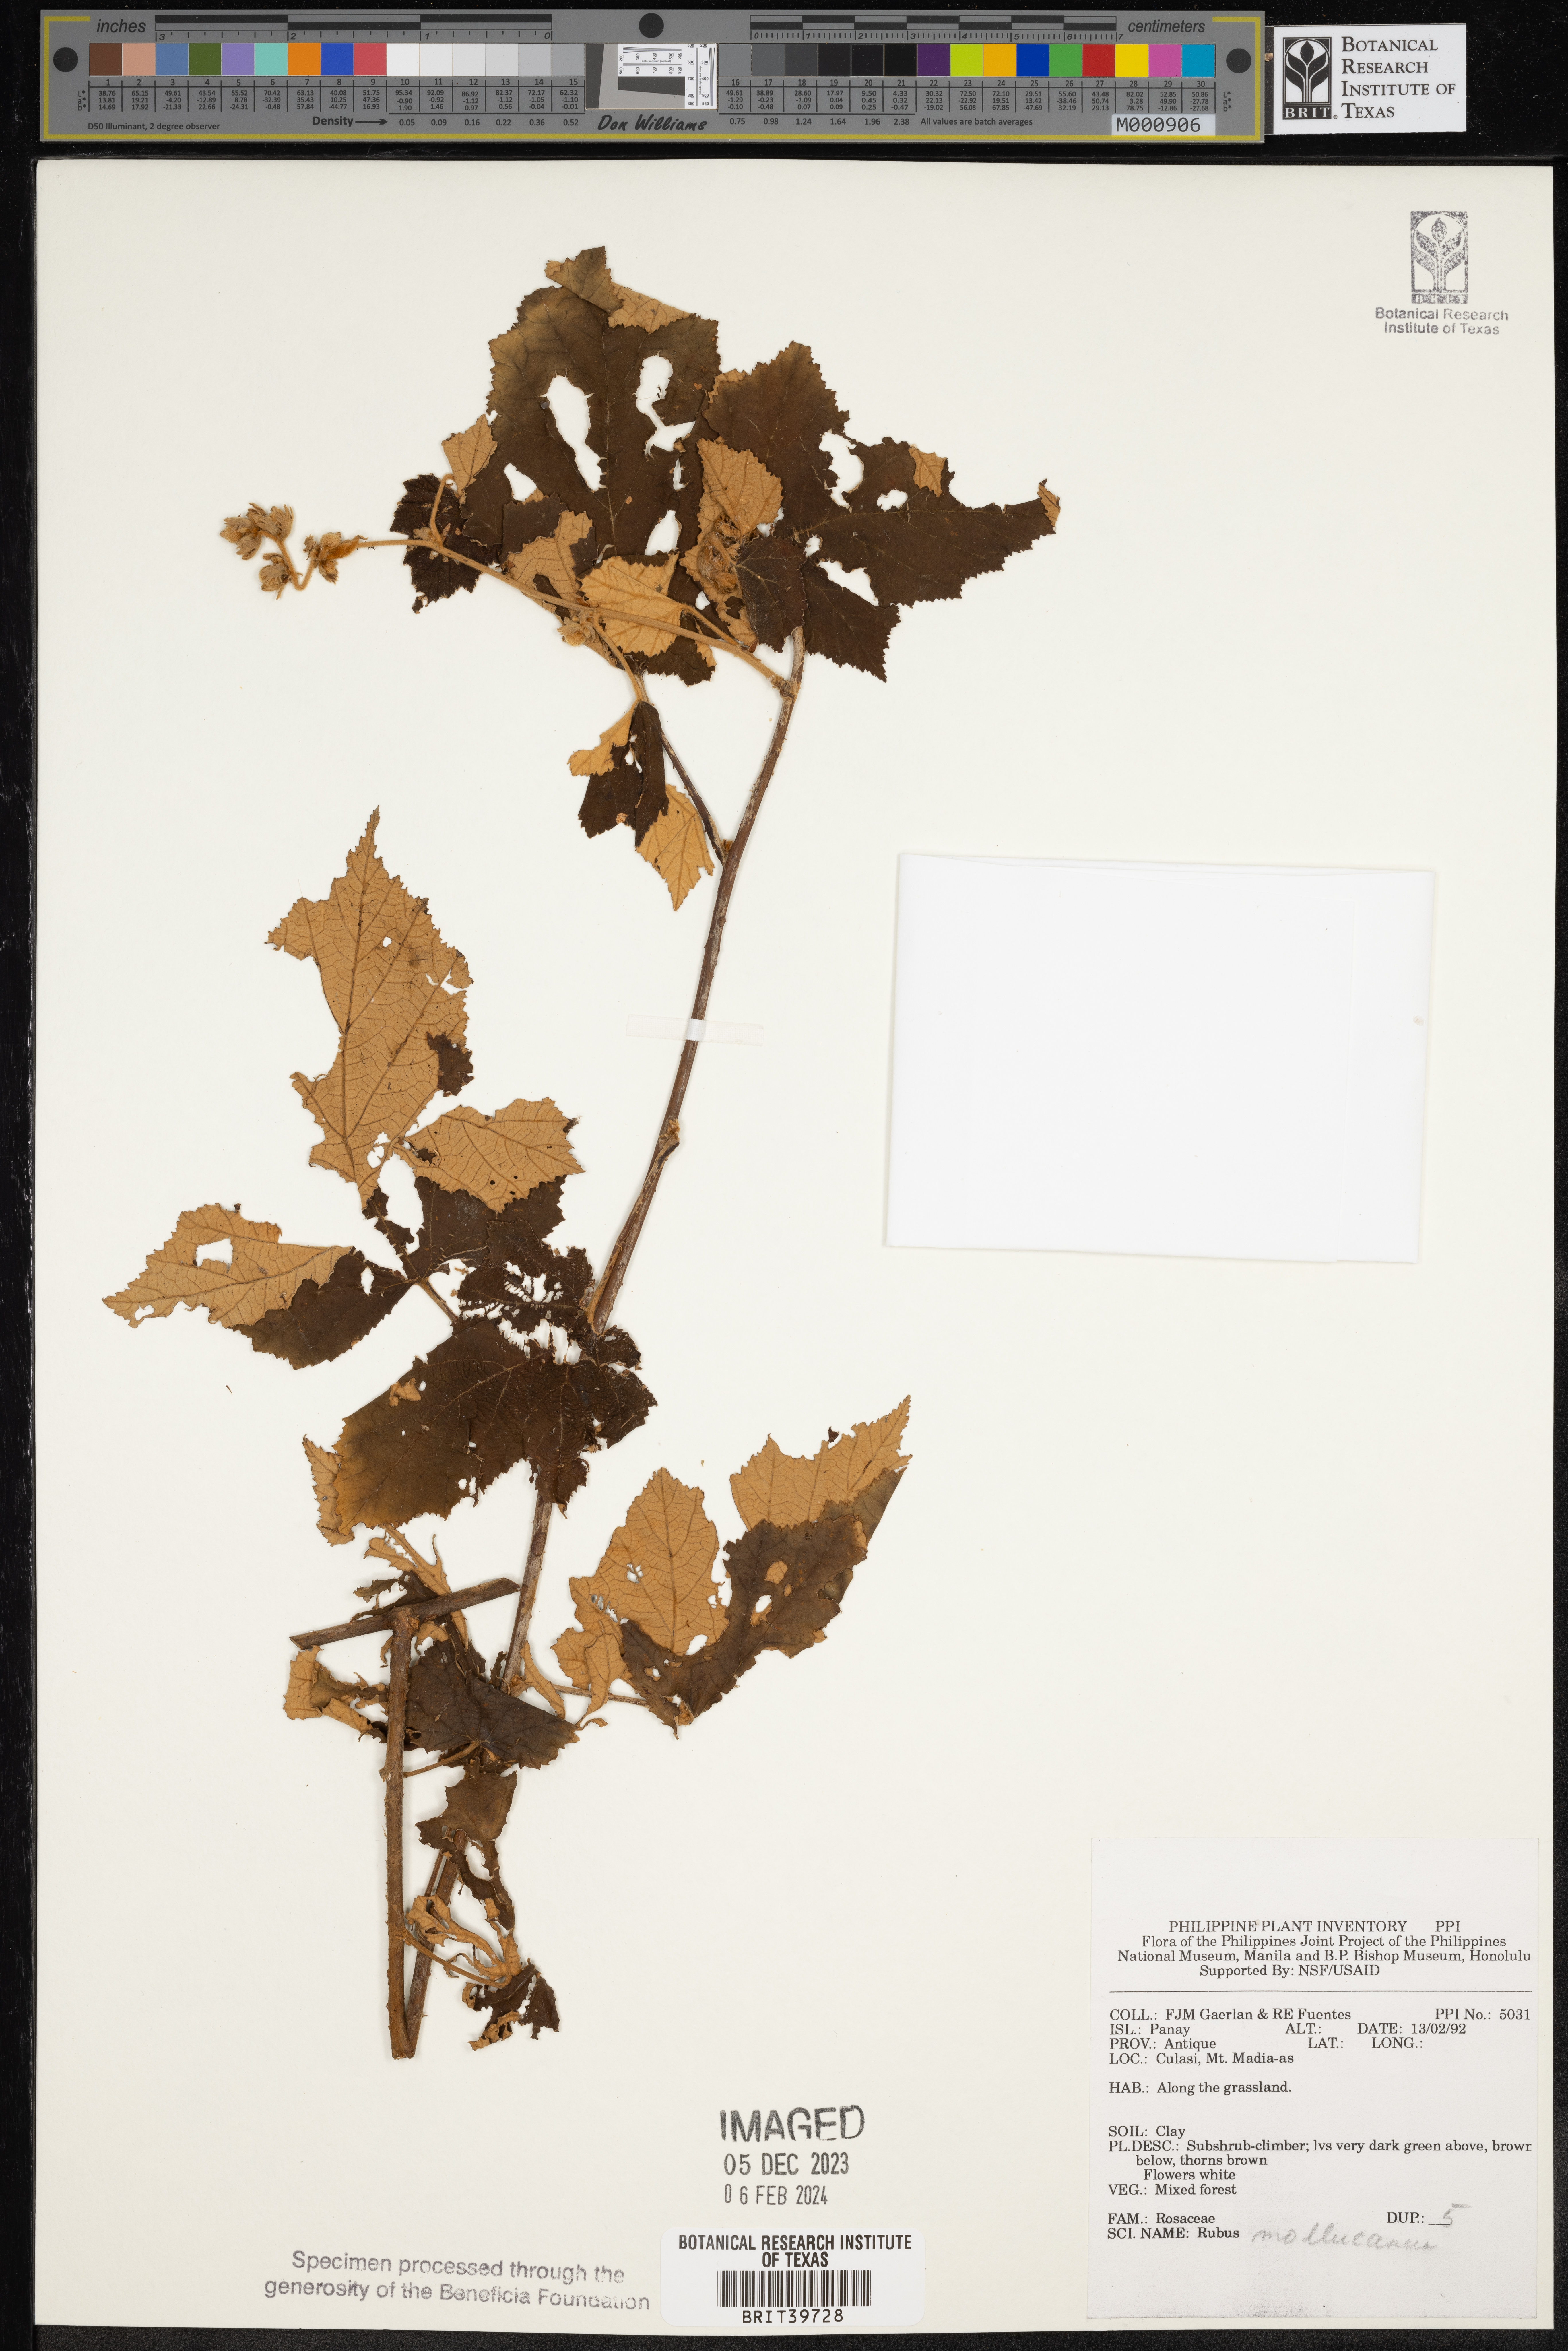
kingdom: Plantae
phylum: Tracheophyta
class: Magnoliopsida
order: Rosales
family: Rosaceae
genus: Rubus
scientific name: Rubus moluccanus
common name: Wild raspberry
